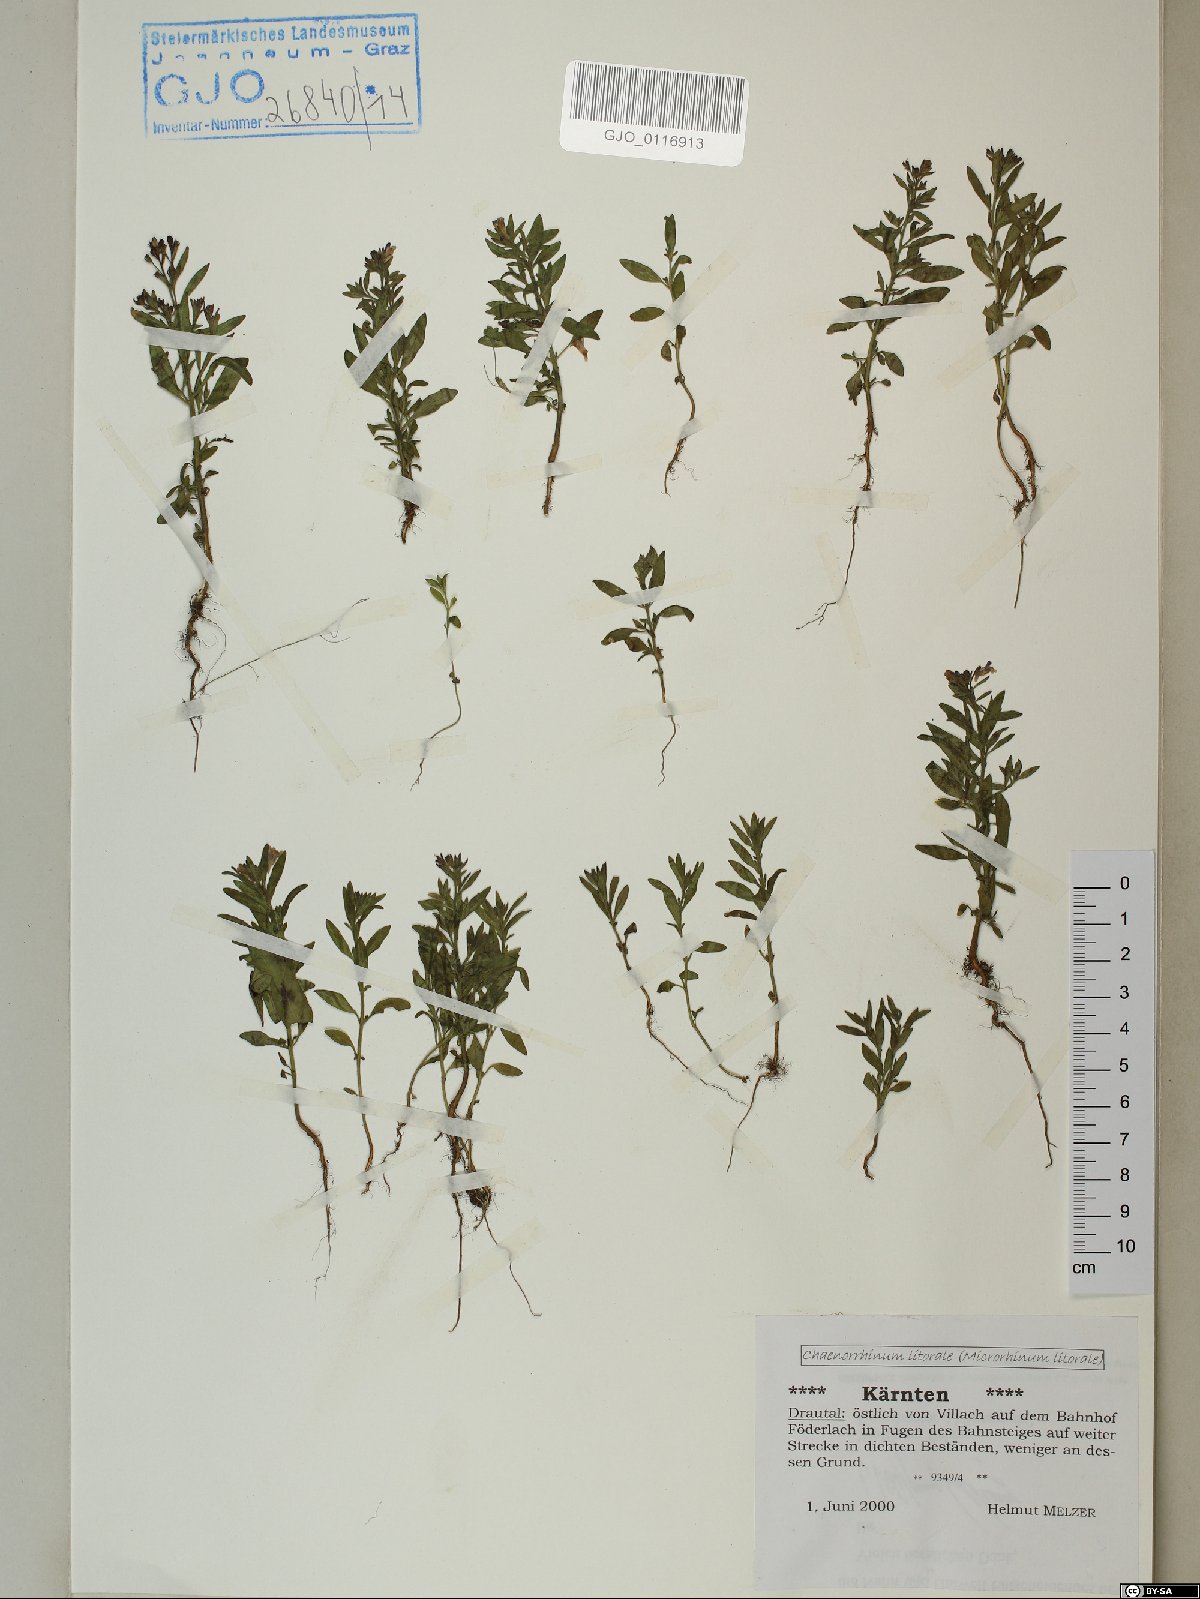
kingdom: Plantae
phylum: Tracheophyta
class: Magnoliopsida
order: Lamiales
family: Plantaginaceae
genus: Chaenorhinum
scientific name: Chaenorhinum litorale
